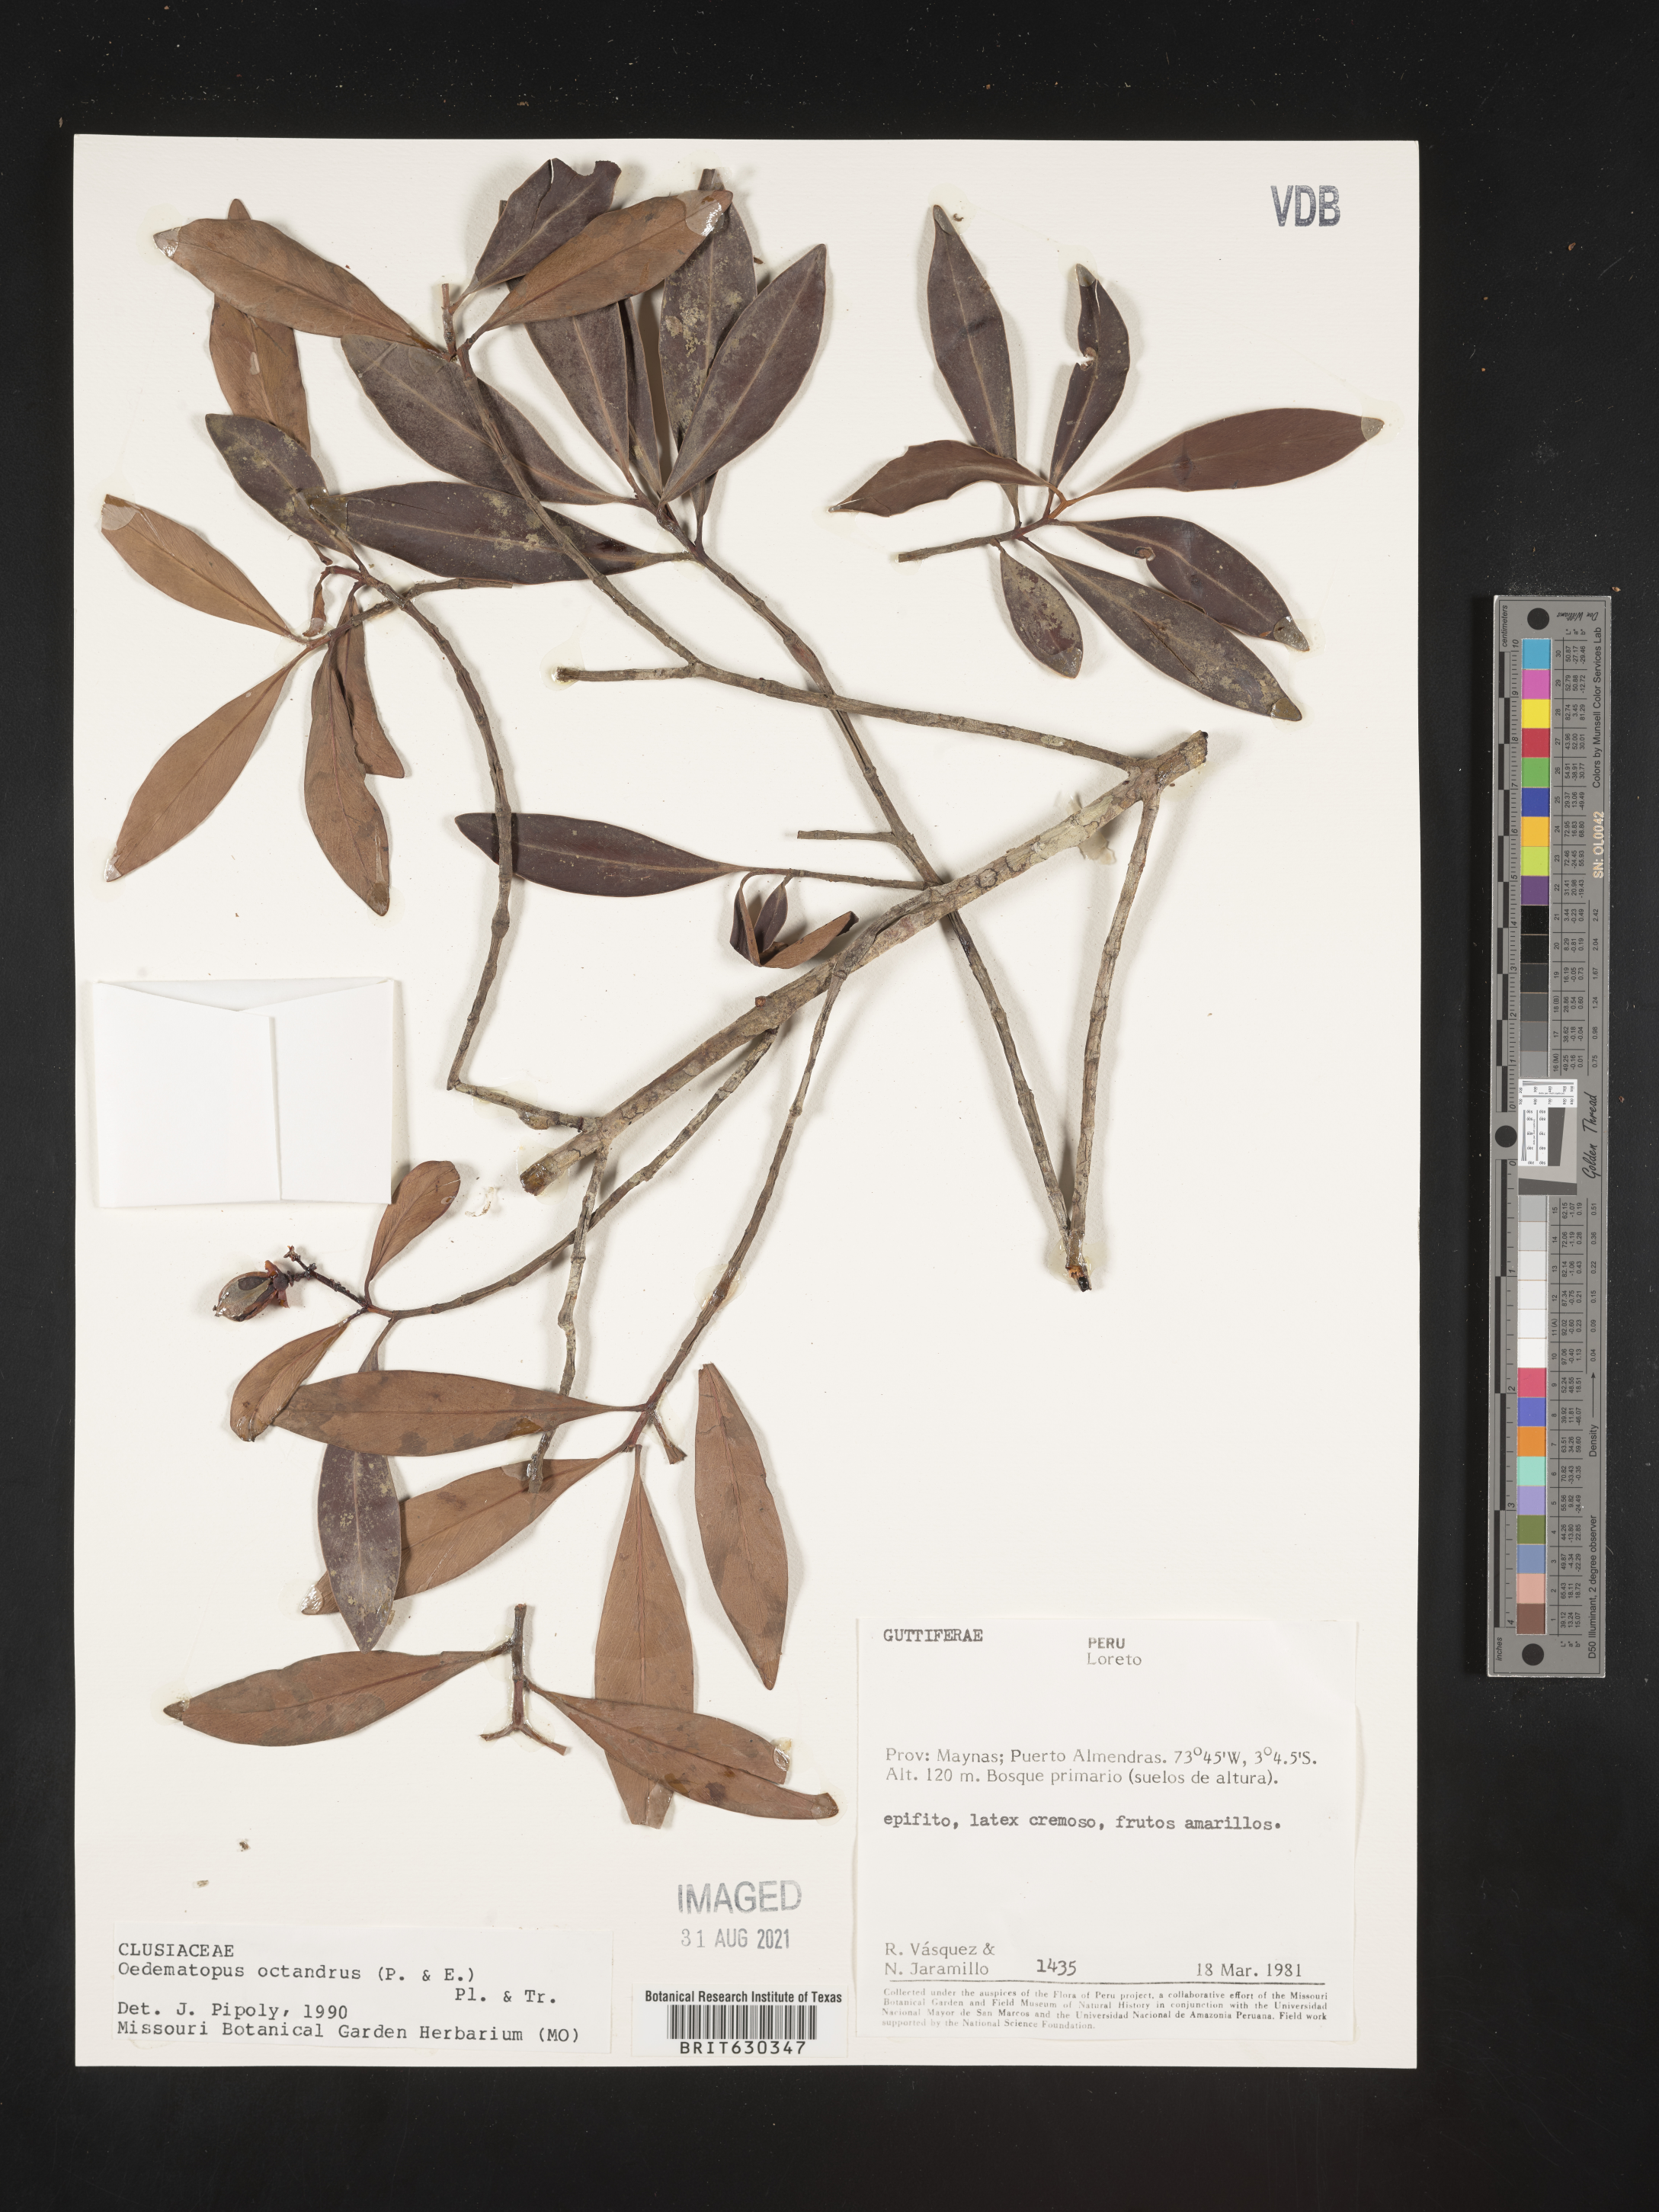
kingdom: Plantae
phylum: Tracheophyta
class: Magnoliopsida
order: Malpighiales
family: Clusiaceae
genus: Clusia
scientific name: Clusia octandra
